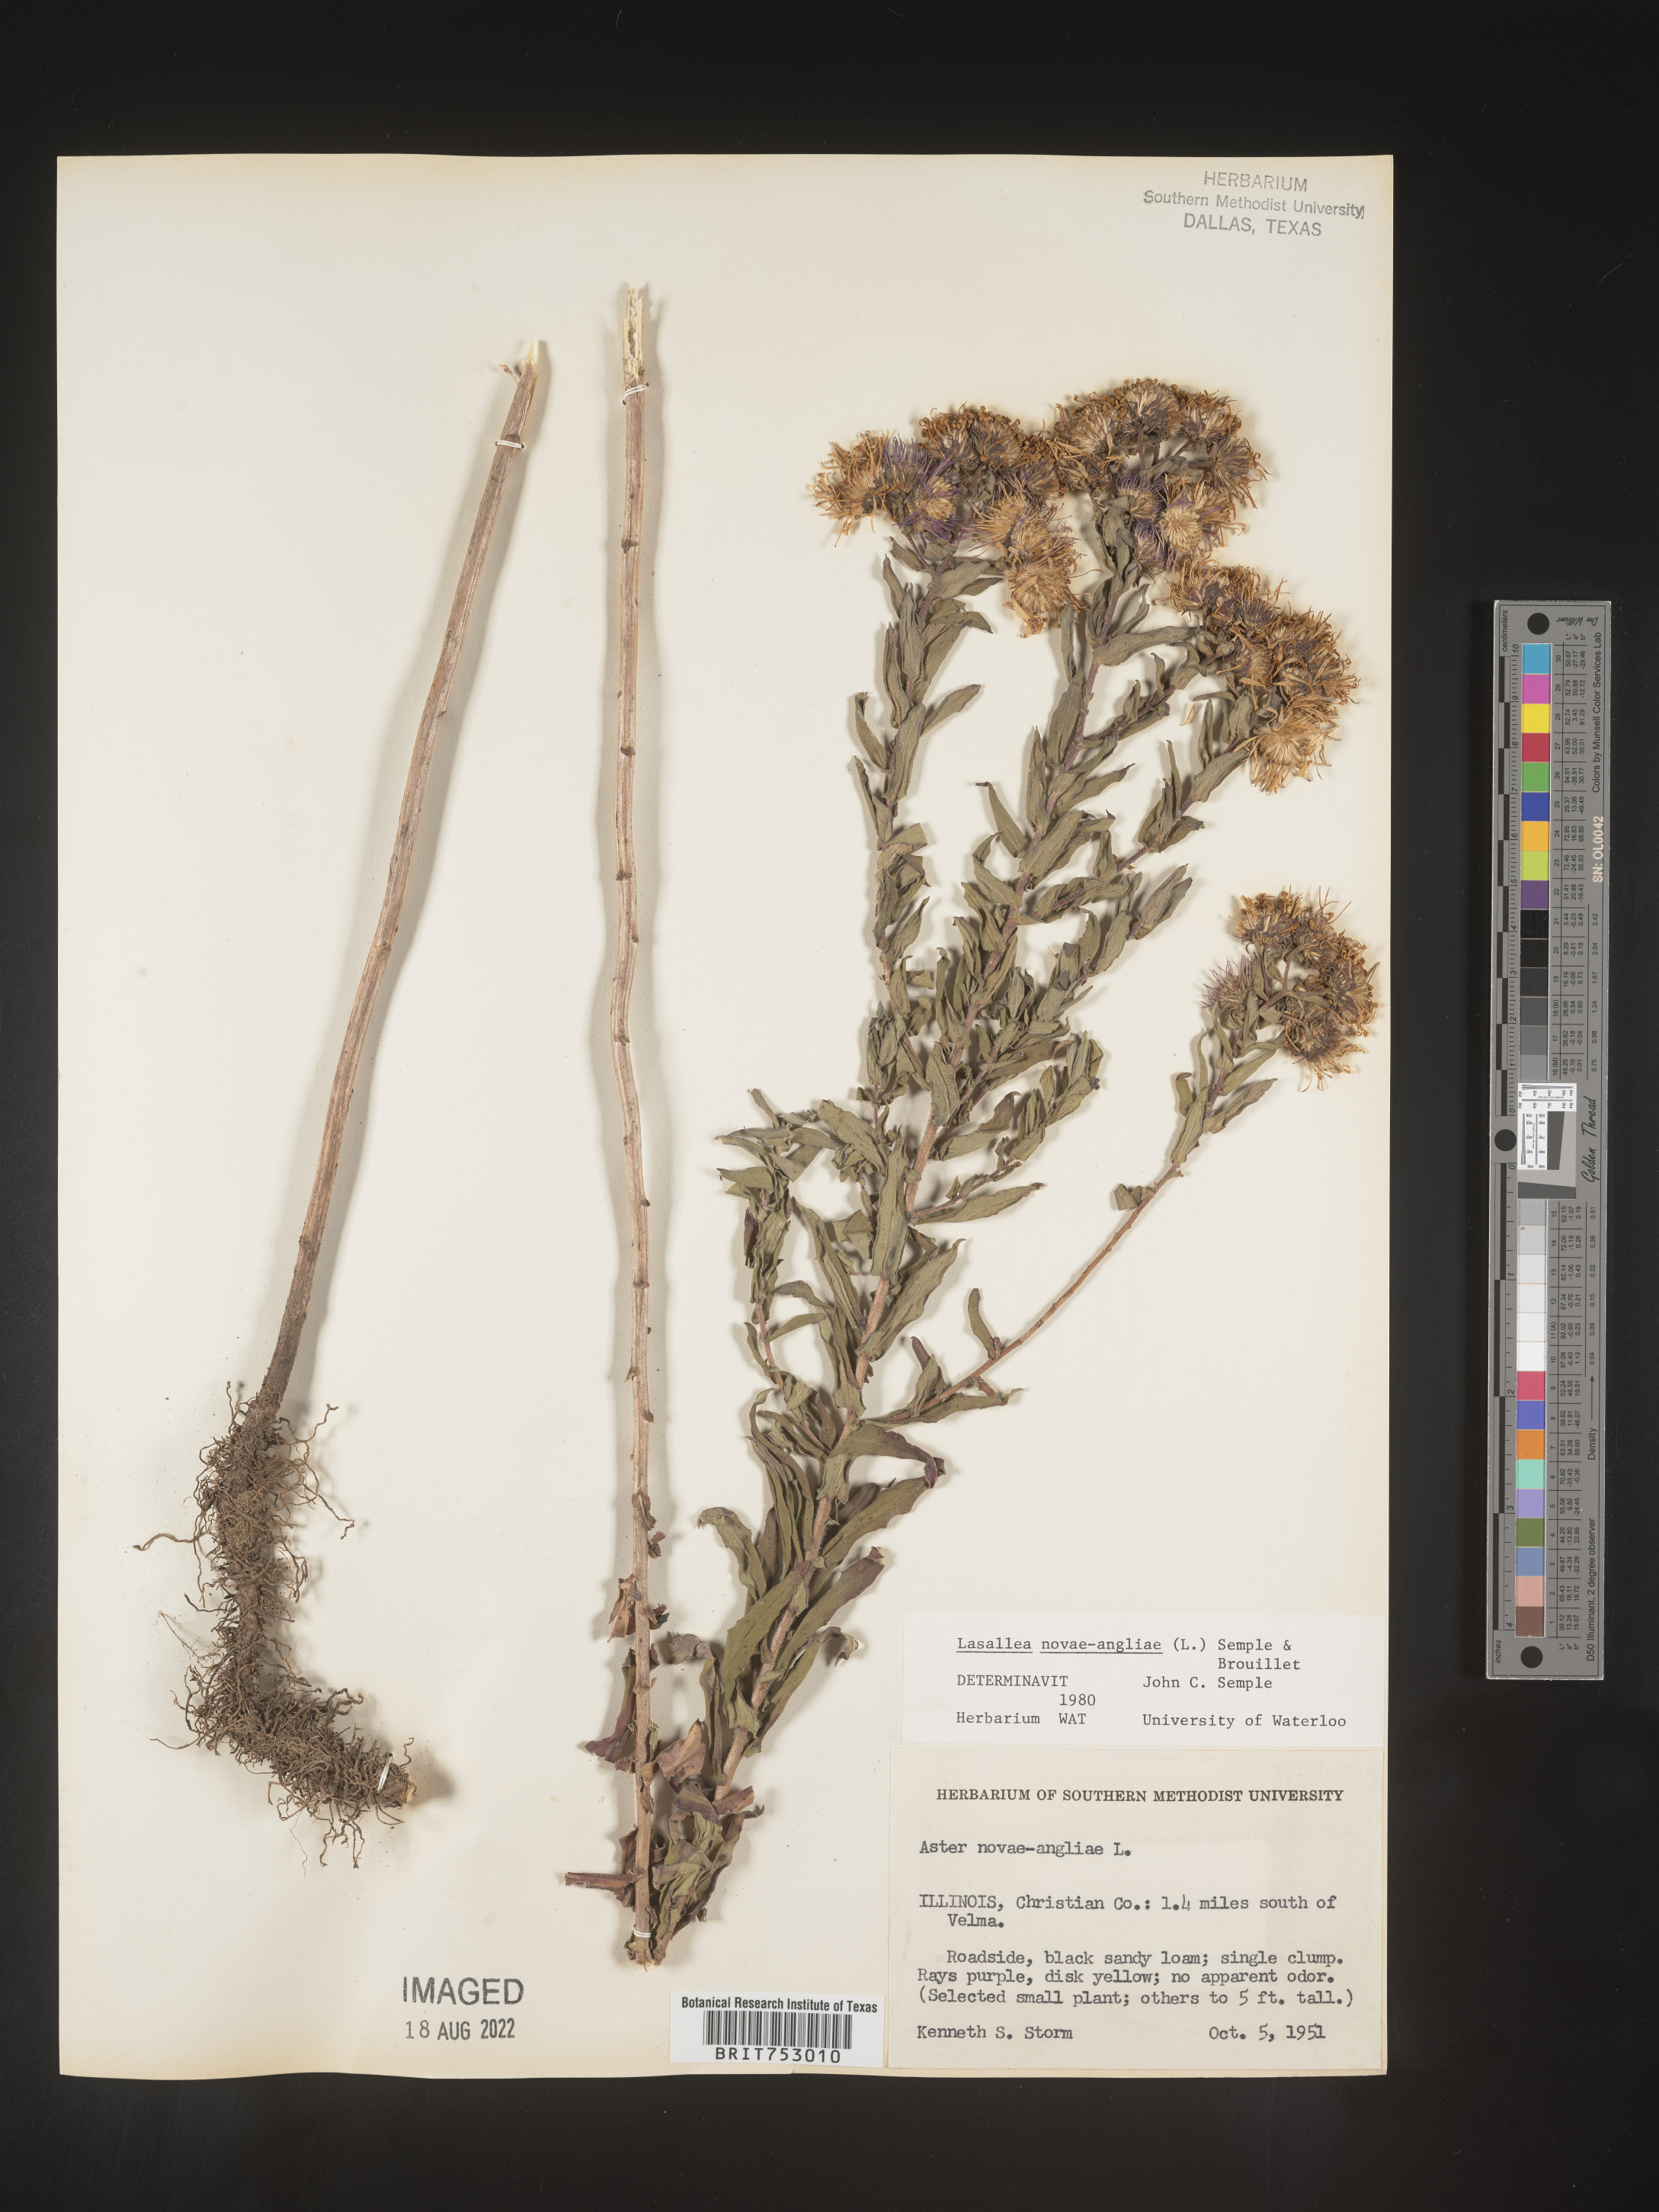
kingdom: Plantae
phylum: Tracheophyta
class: Magnoliopsida
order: Asterales
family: Asteraceae
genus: Symphyotrichum
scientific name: Symphyotrichum novae-angliae
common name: Michaelmas daisy
